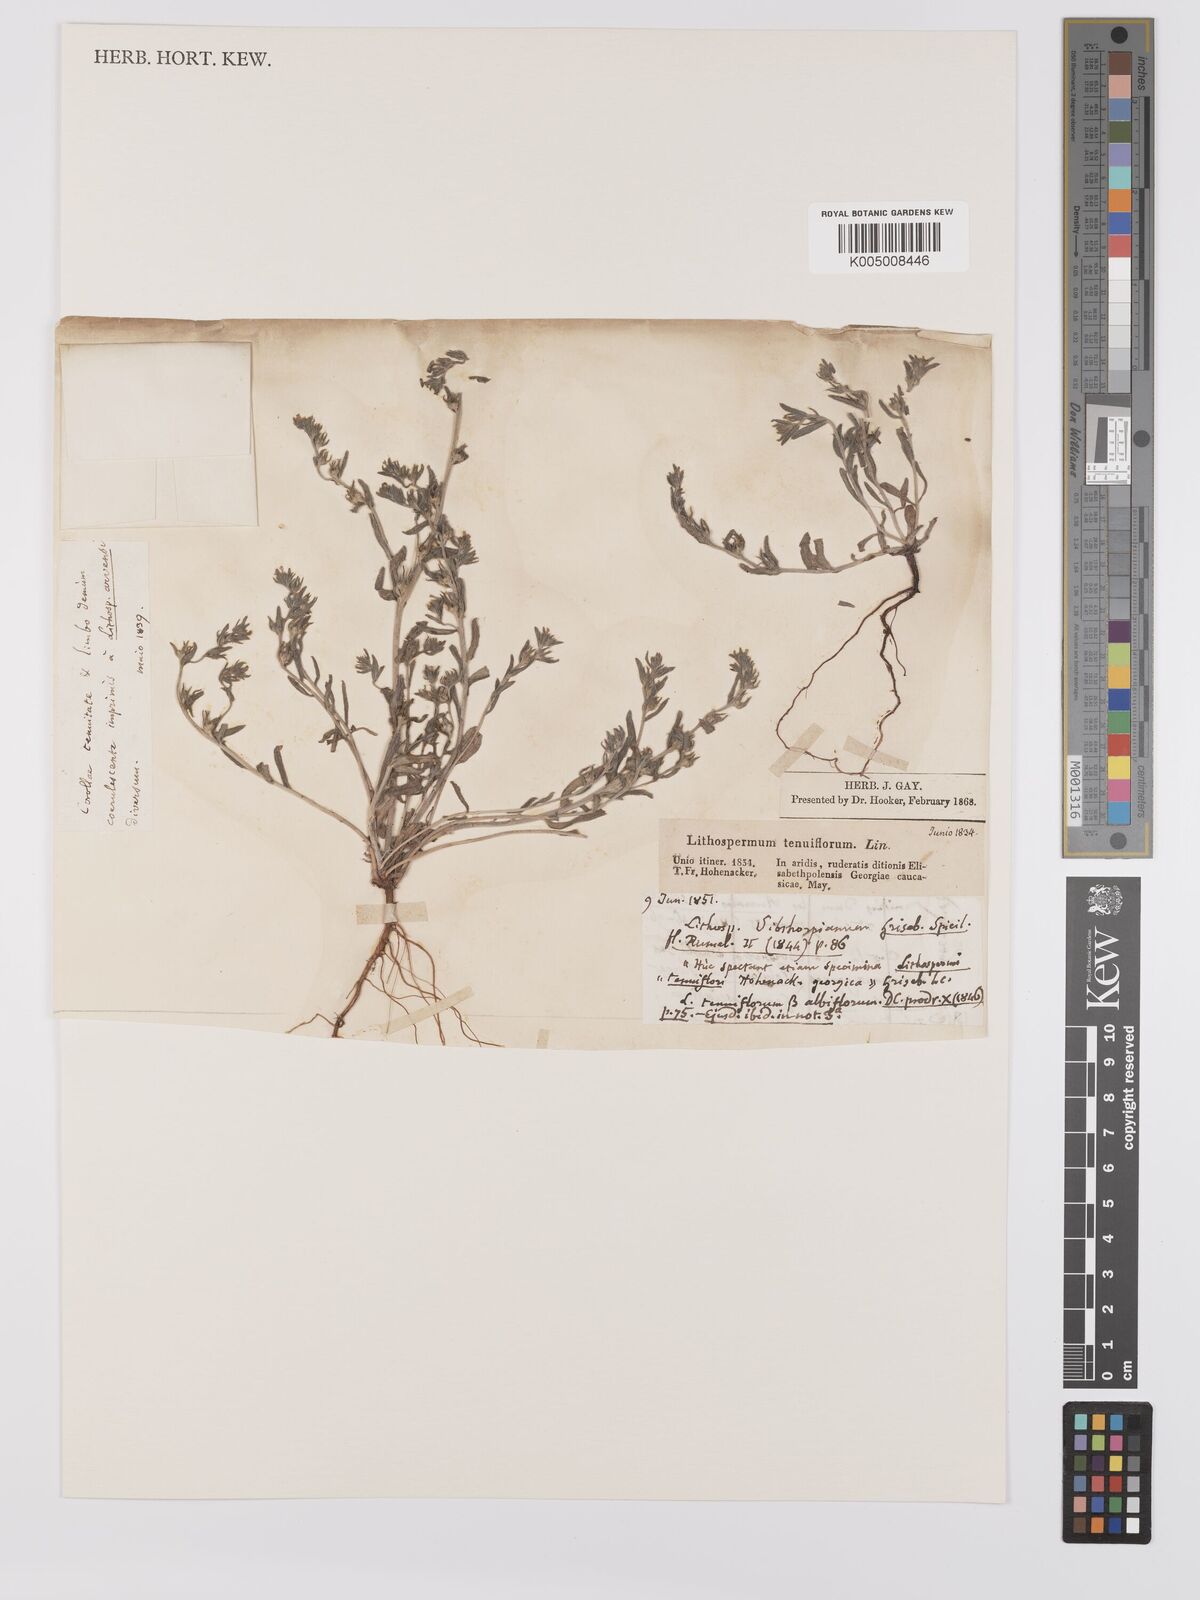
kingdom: Plantae
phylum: Tracheophyta
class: Magnoliopsida
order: Boraginales
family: Boraginaceae
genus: Buglossoides
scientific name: Buglossoides arvensis
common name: Corn gromwell
